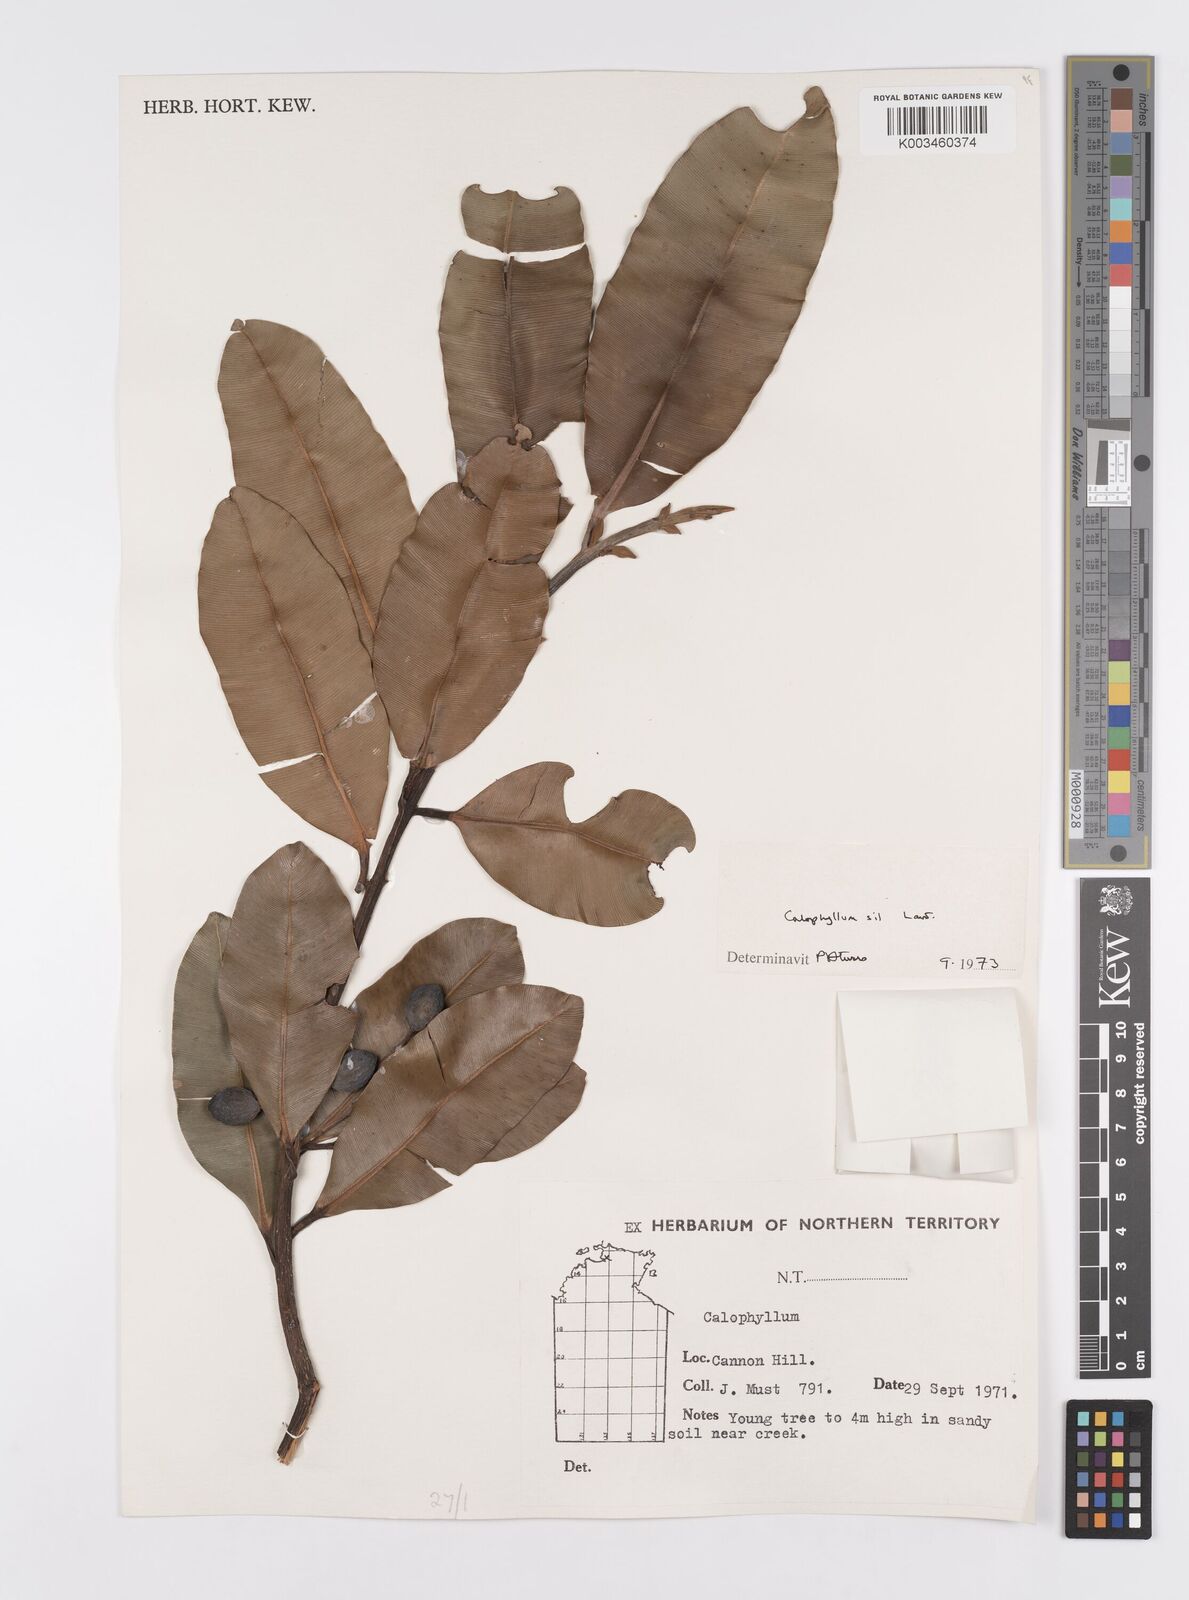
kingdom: Plantae
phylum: Tracheophyta
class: Magnoliopsida
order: Malpighiales
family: Calophyllaceae
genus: Calophyllum
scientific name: Calophyllum sil
